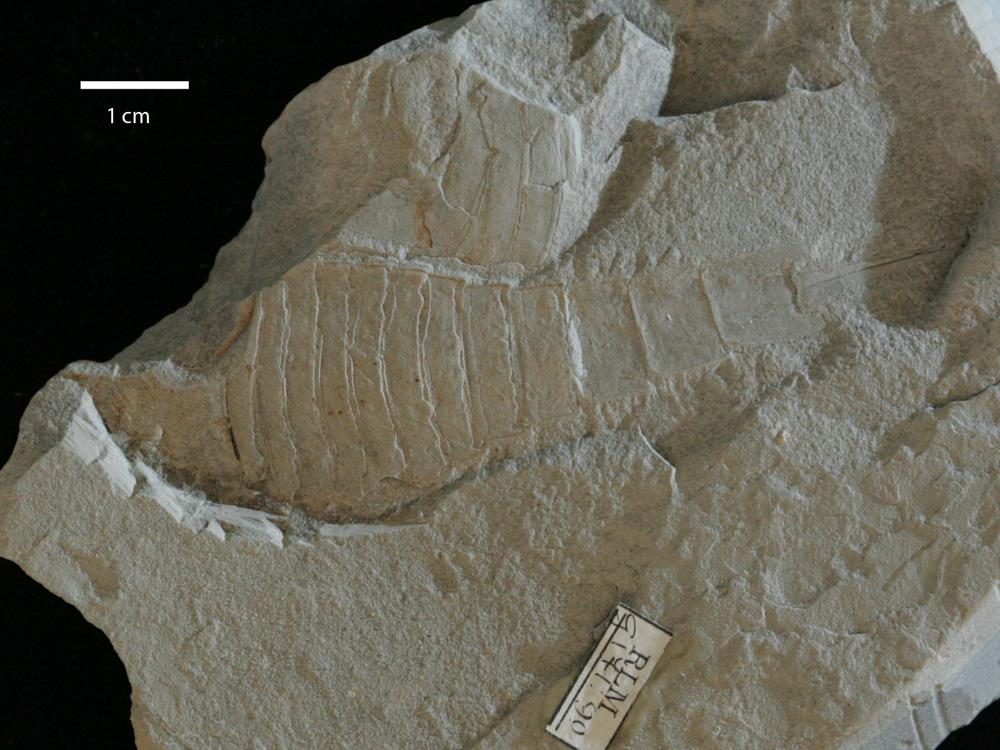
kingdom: Animalia
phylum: Arthropoda
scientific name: Arthropoda
